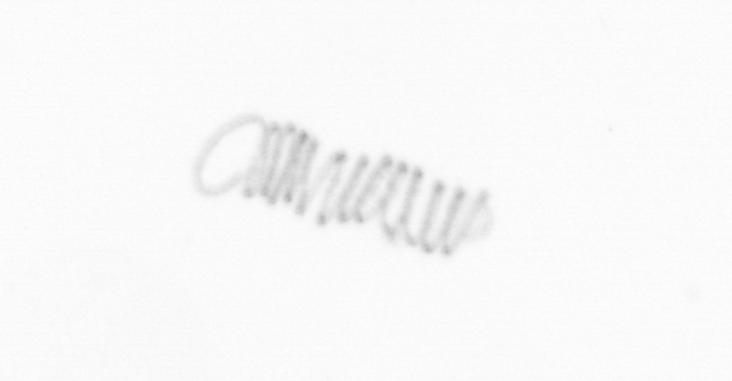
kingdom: Chromista
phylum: Ochrophyta
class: Bacillariophyceae
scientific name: Bacillariophyceae
